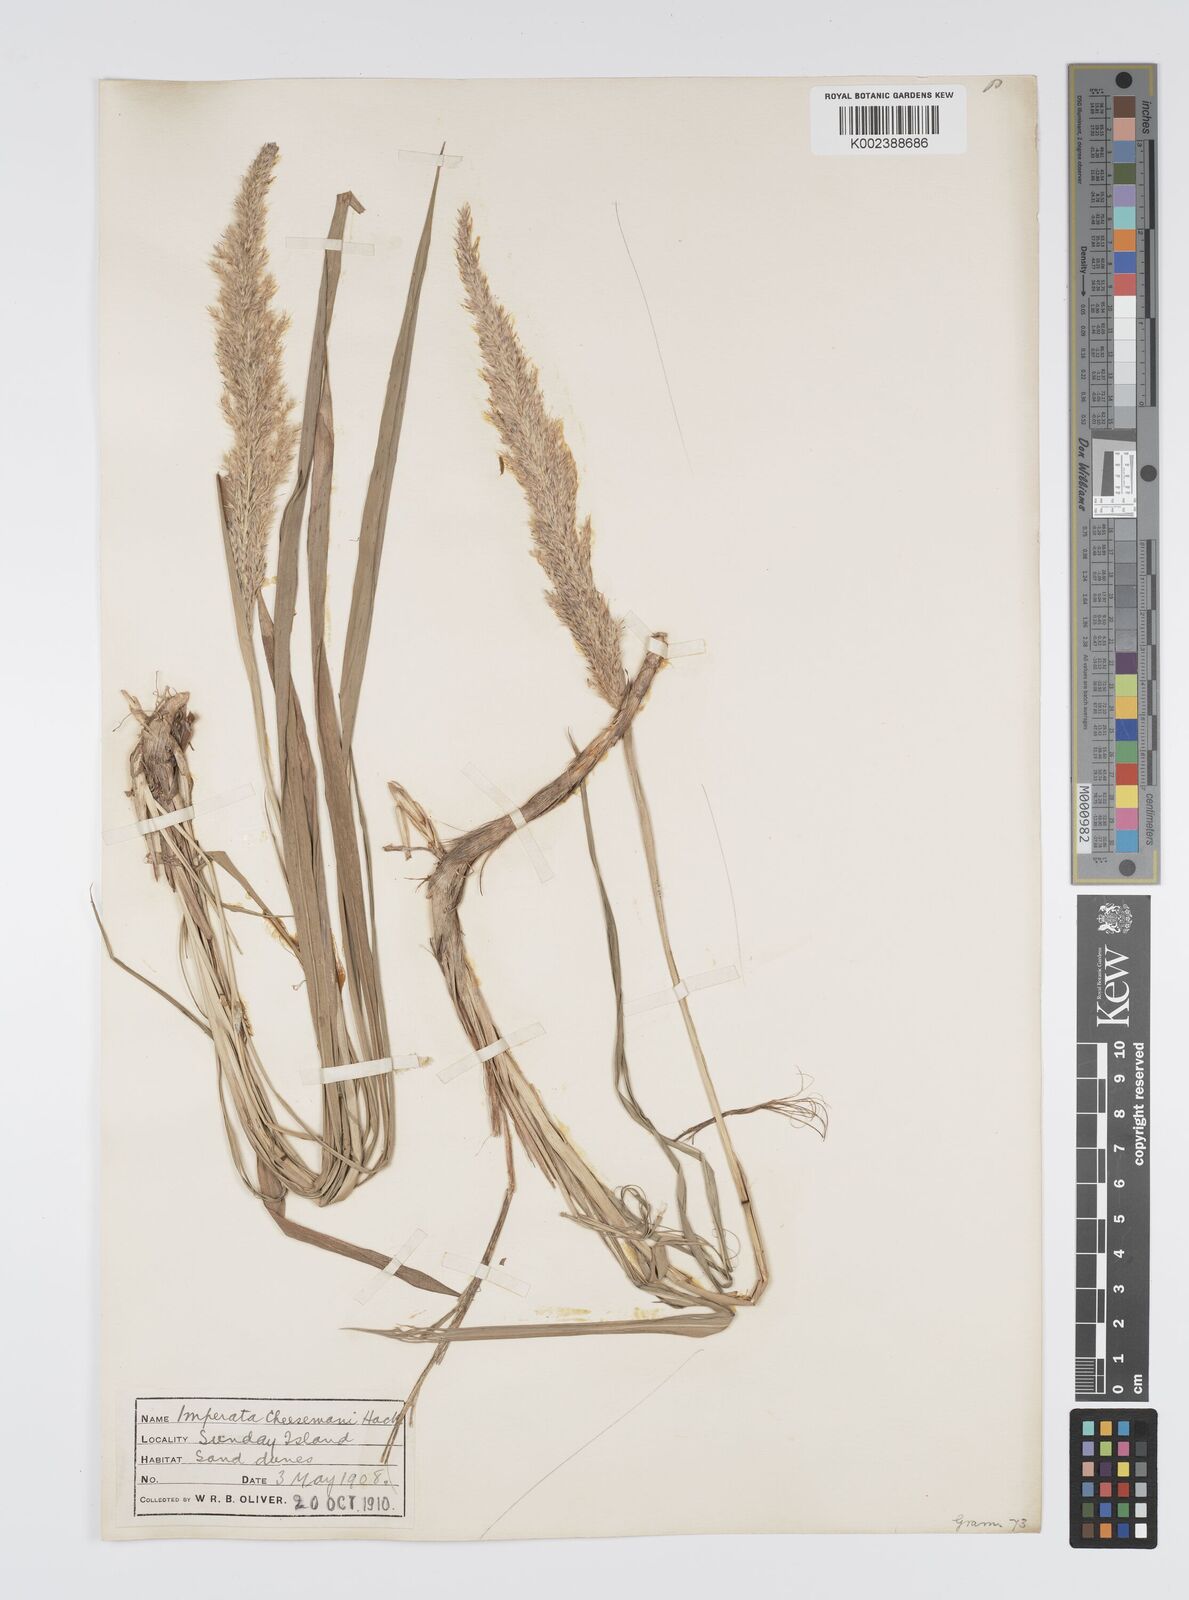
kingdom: Plantae
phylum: Tracheophyta
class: Liliopsida
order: Poales
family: Poaceae
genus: Imperata
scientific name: Imperata cheesemanii
